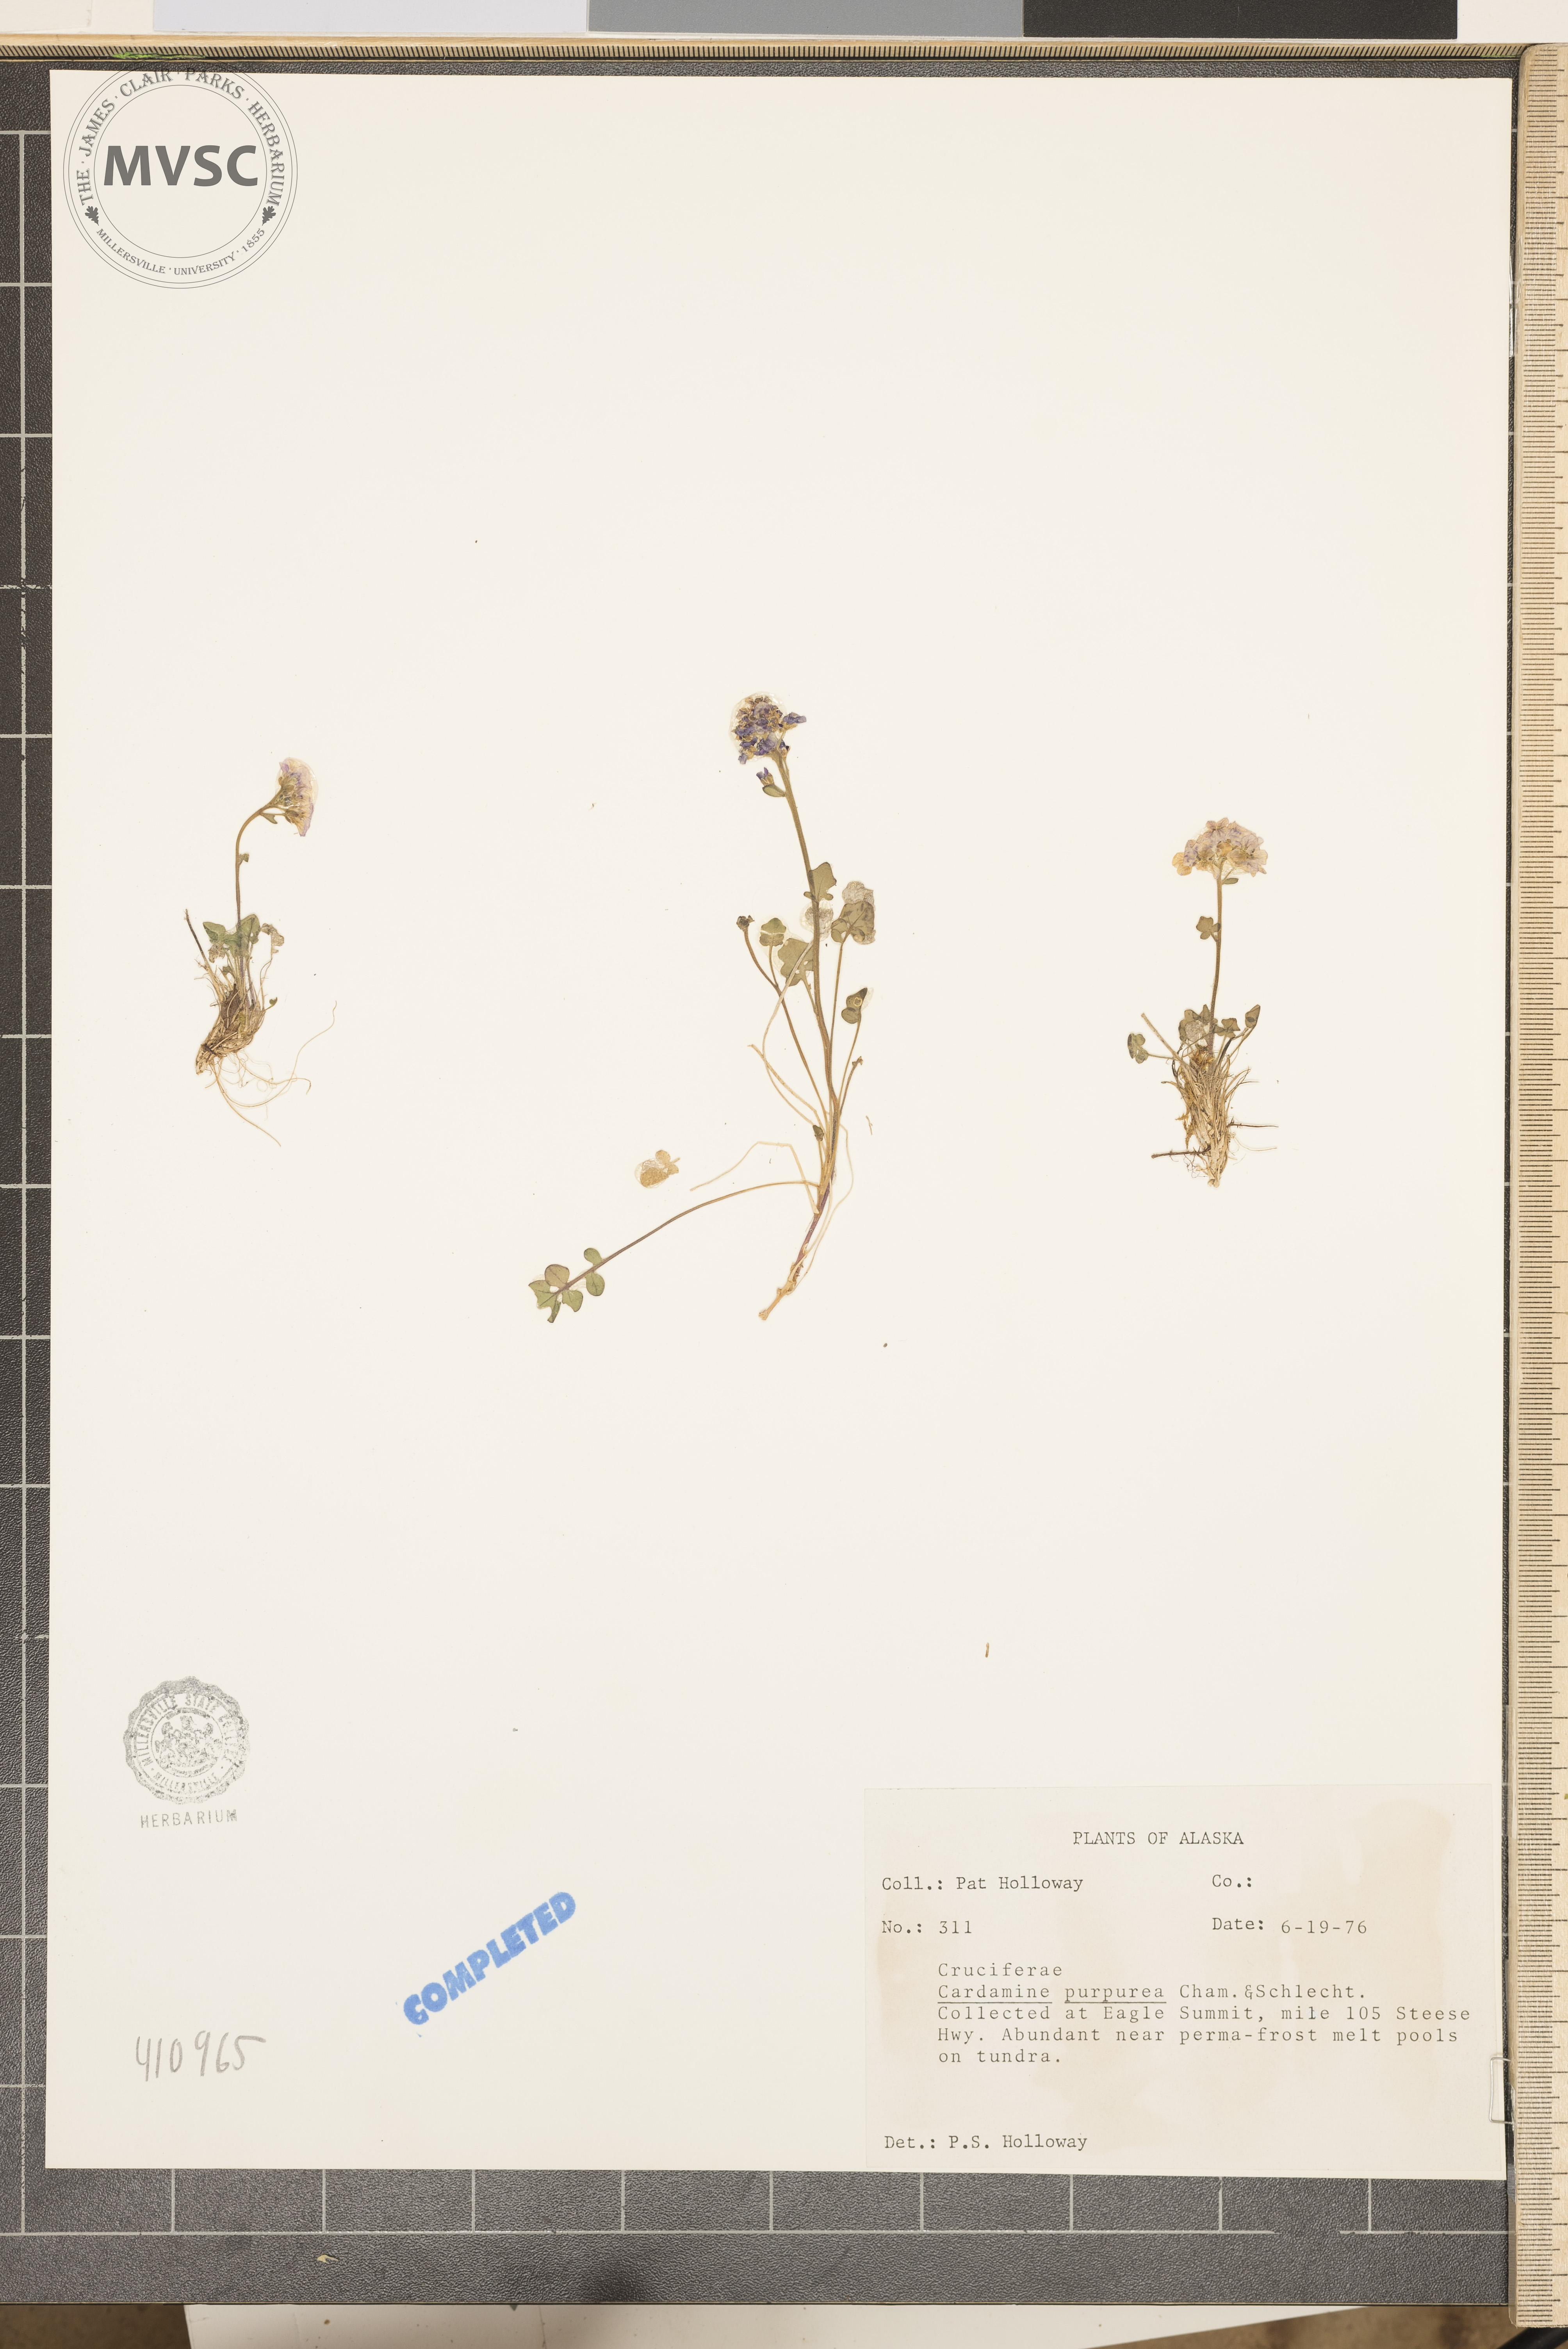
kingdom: Plantae
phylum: Tracheophyta
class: Magnoliopsida
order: Brassicales
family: Brassicaceae
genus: Cardamine
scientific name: Cardamine purpurea
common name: Purple bittercress
